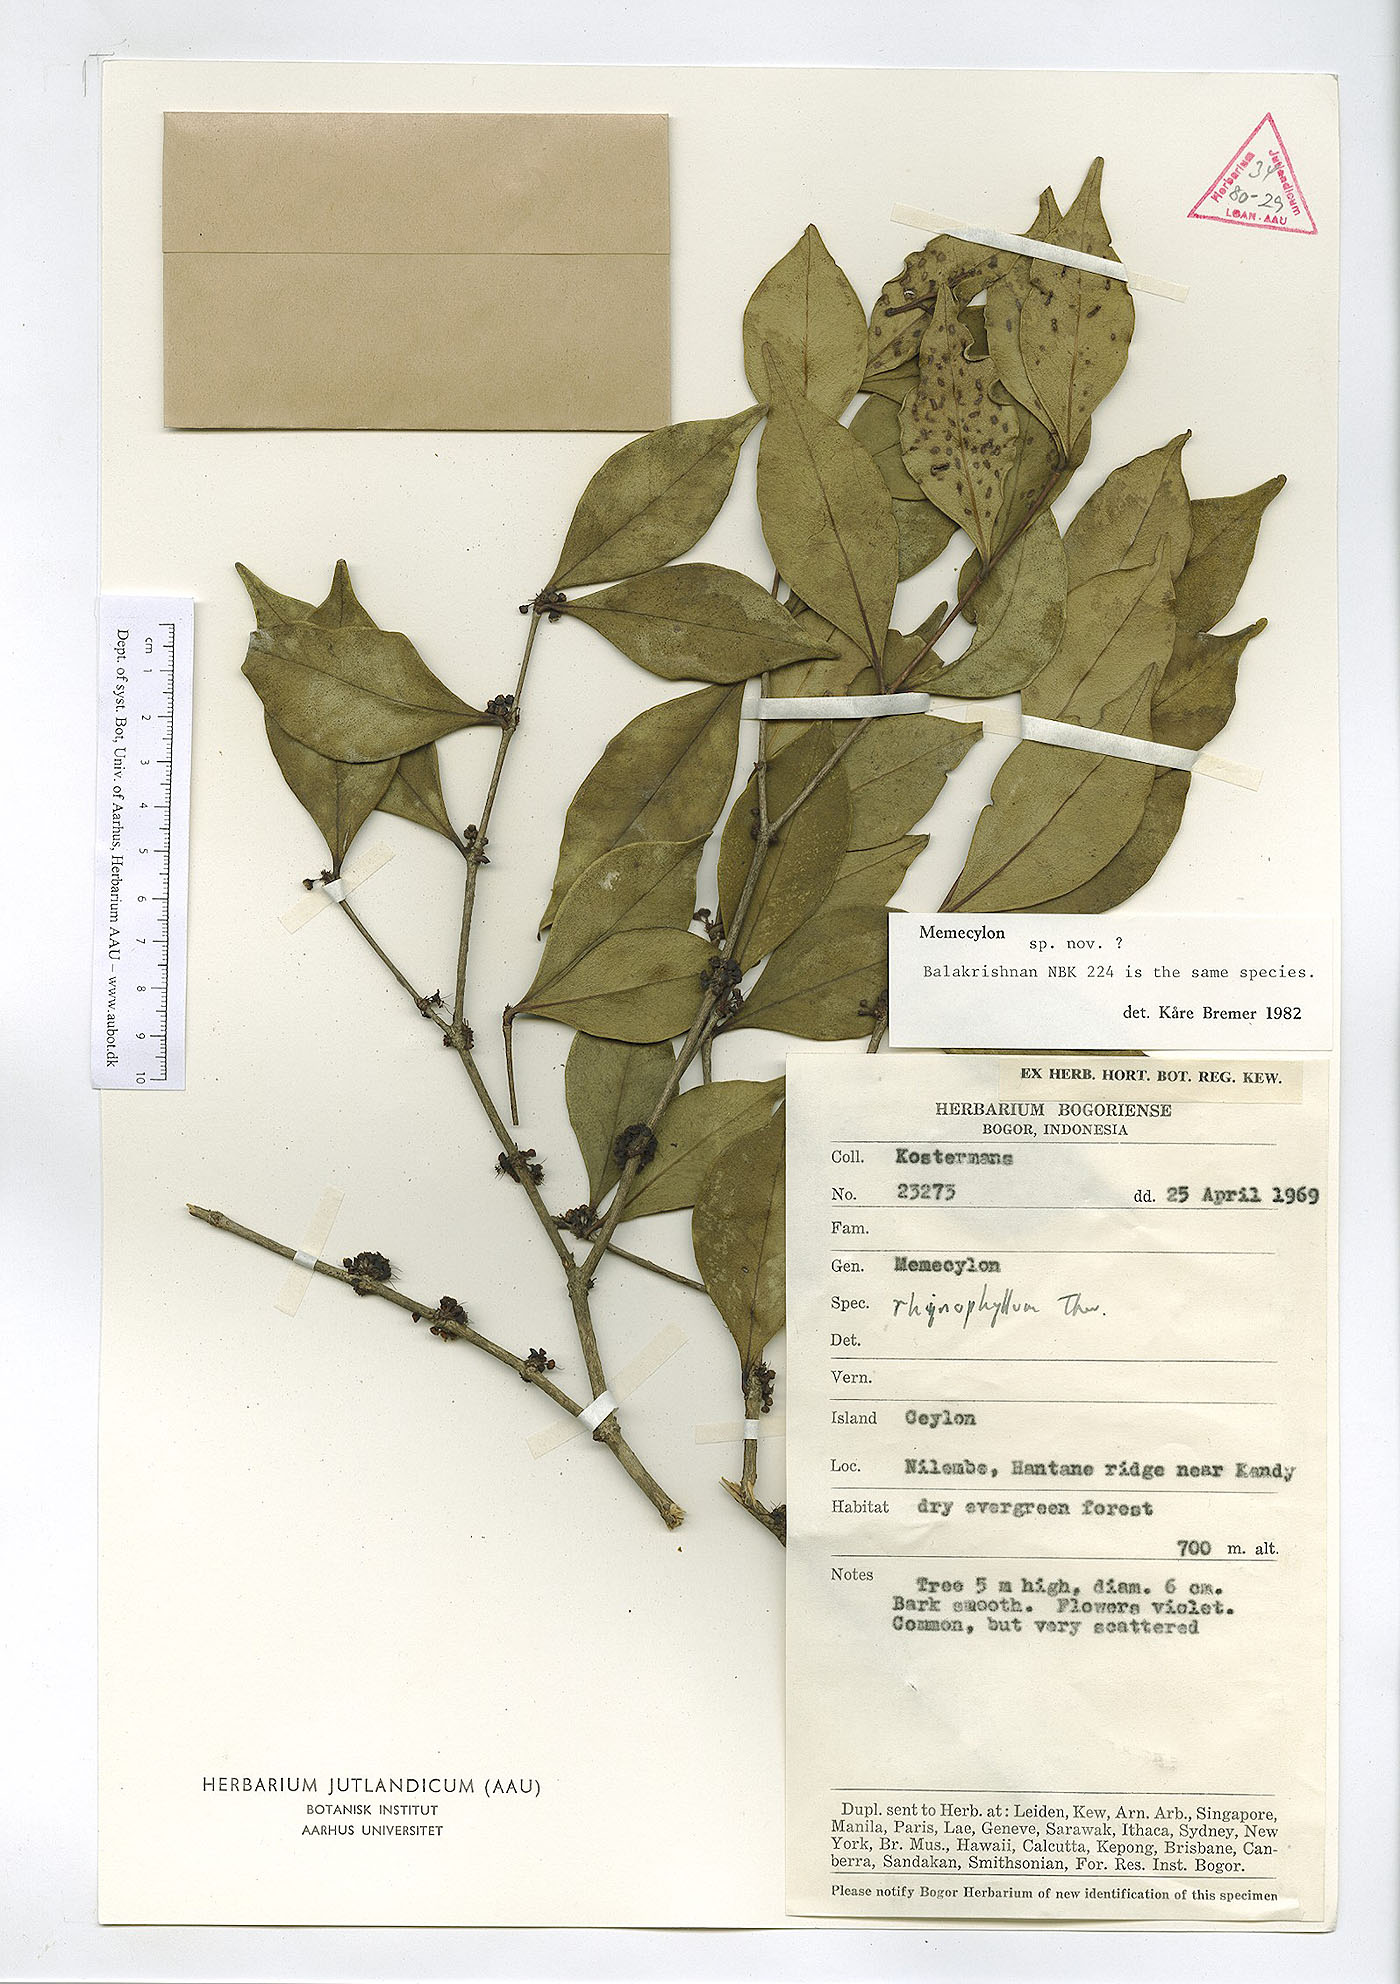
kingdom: Plantae
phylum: Tracheophyta
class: Magnoliopsida
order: Myrtales
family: Melastomataceae
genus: Memecylon
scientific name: Memecylon rhinophyllum
